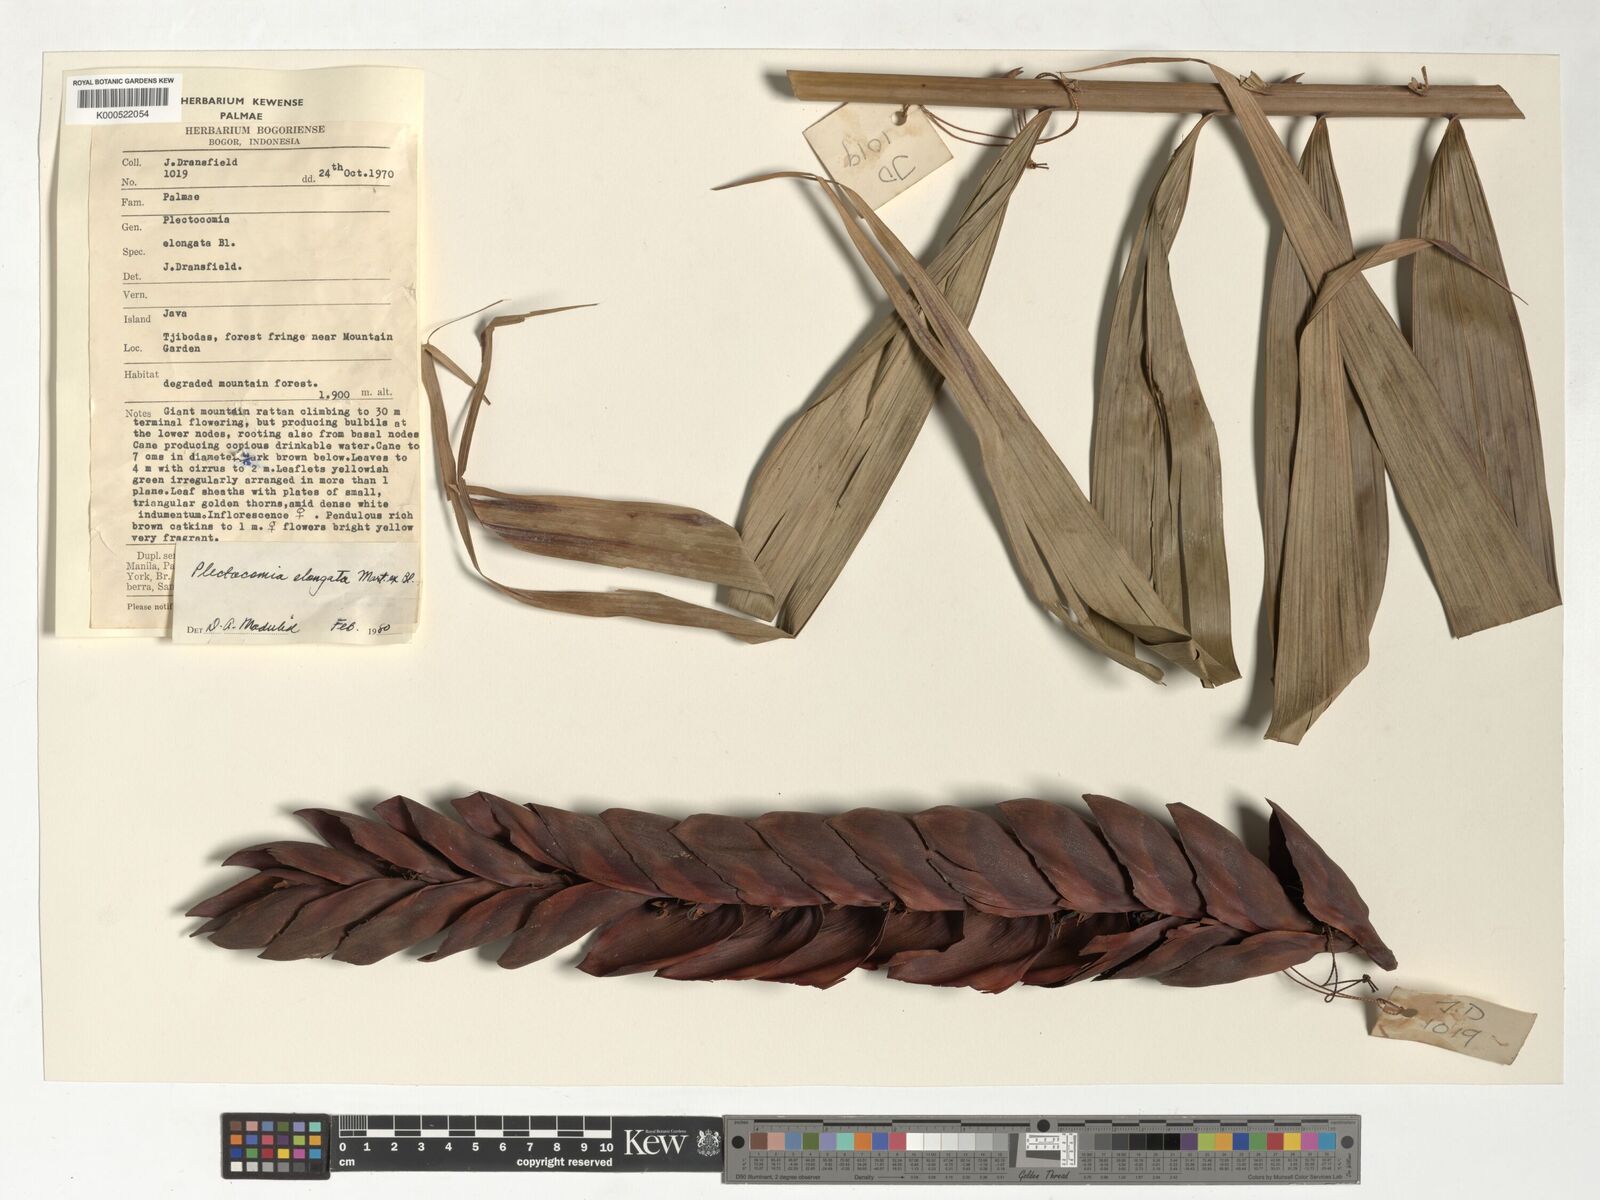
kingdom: Plantae
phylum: Tracheophyta
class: Liliopsida
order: Arecales
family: Arecaceae
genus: Plectocomia
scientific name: Plectocomia elongata
